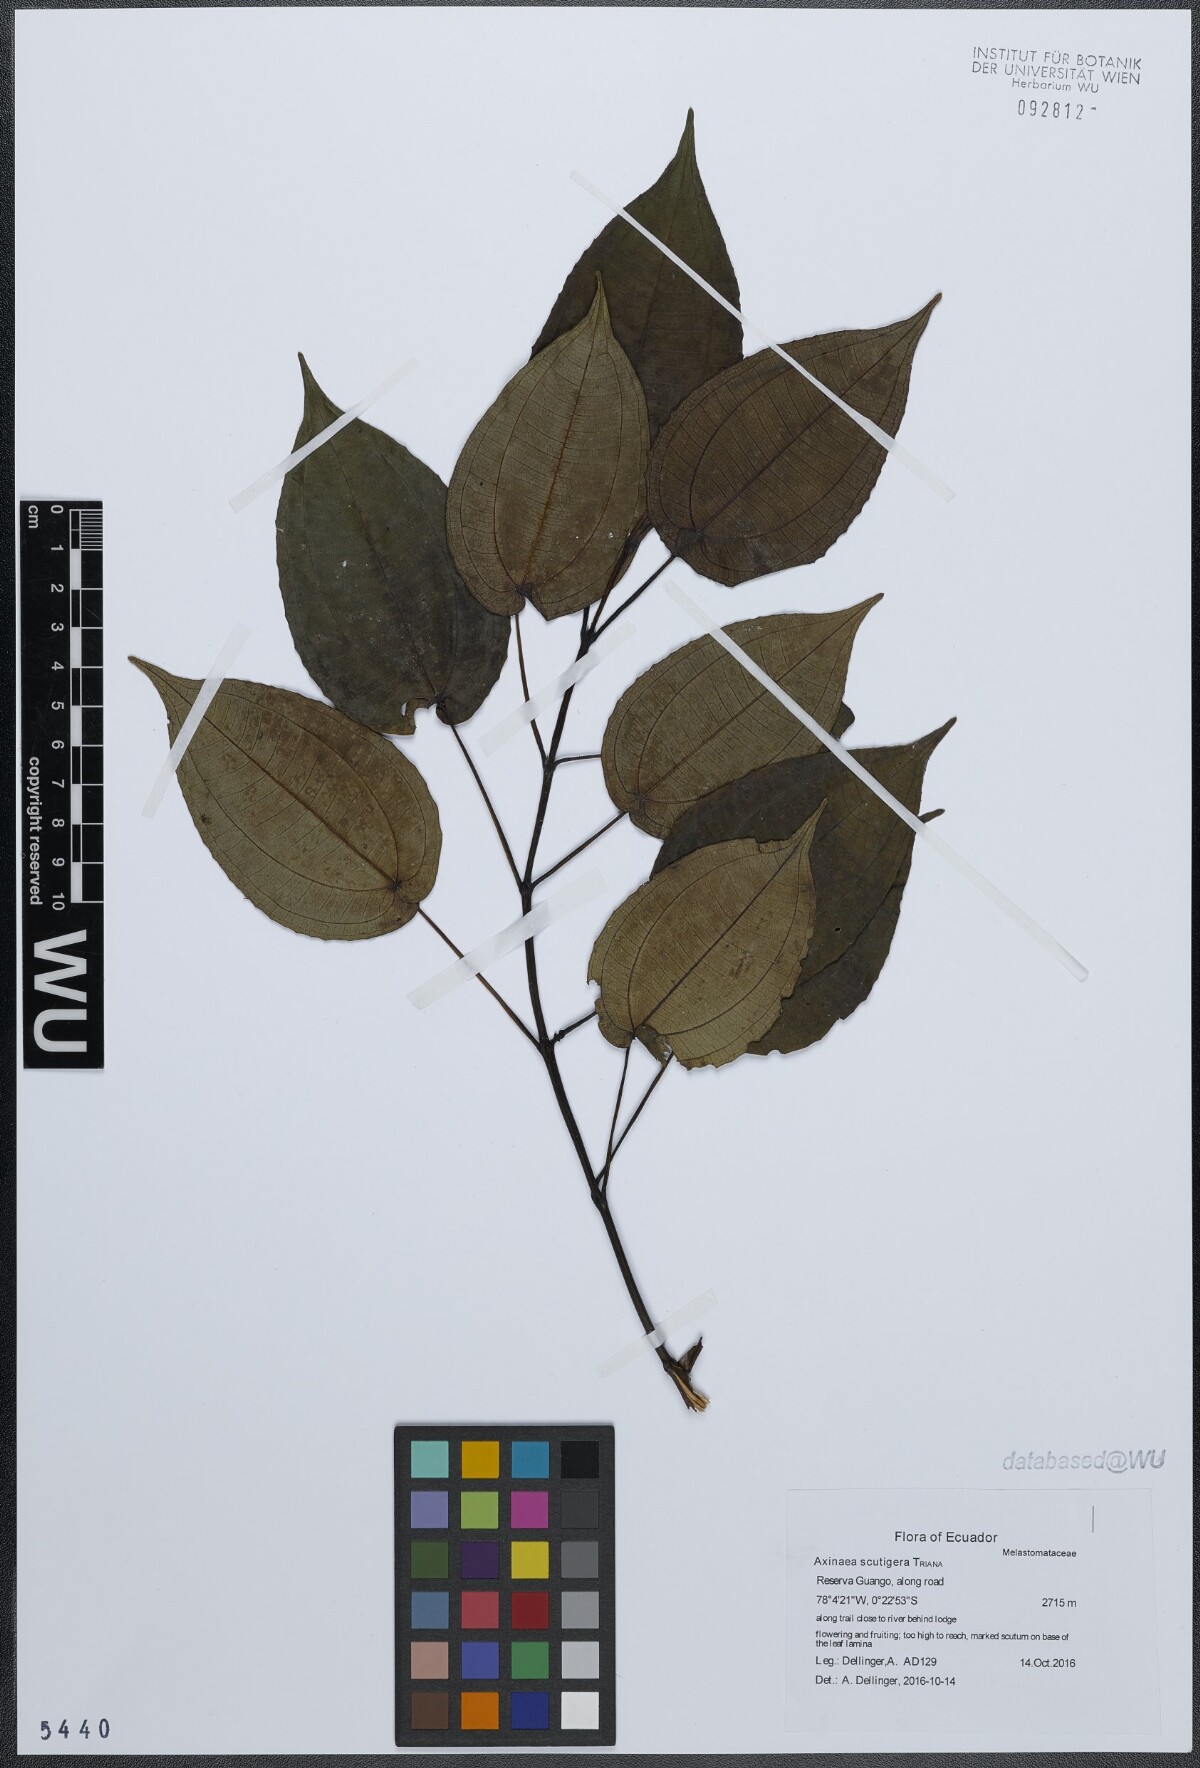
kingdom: Plantae
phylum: Tracheophyta
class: Magnoliopsida
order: Myrtales
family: Melastomataceae
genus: Axinaea
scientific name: Axinaea scutigera
